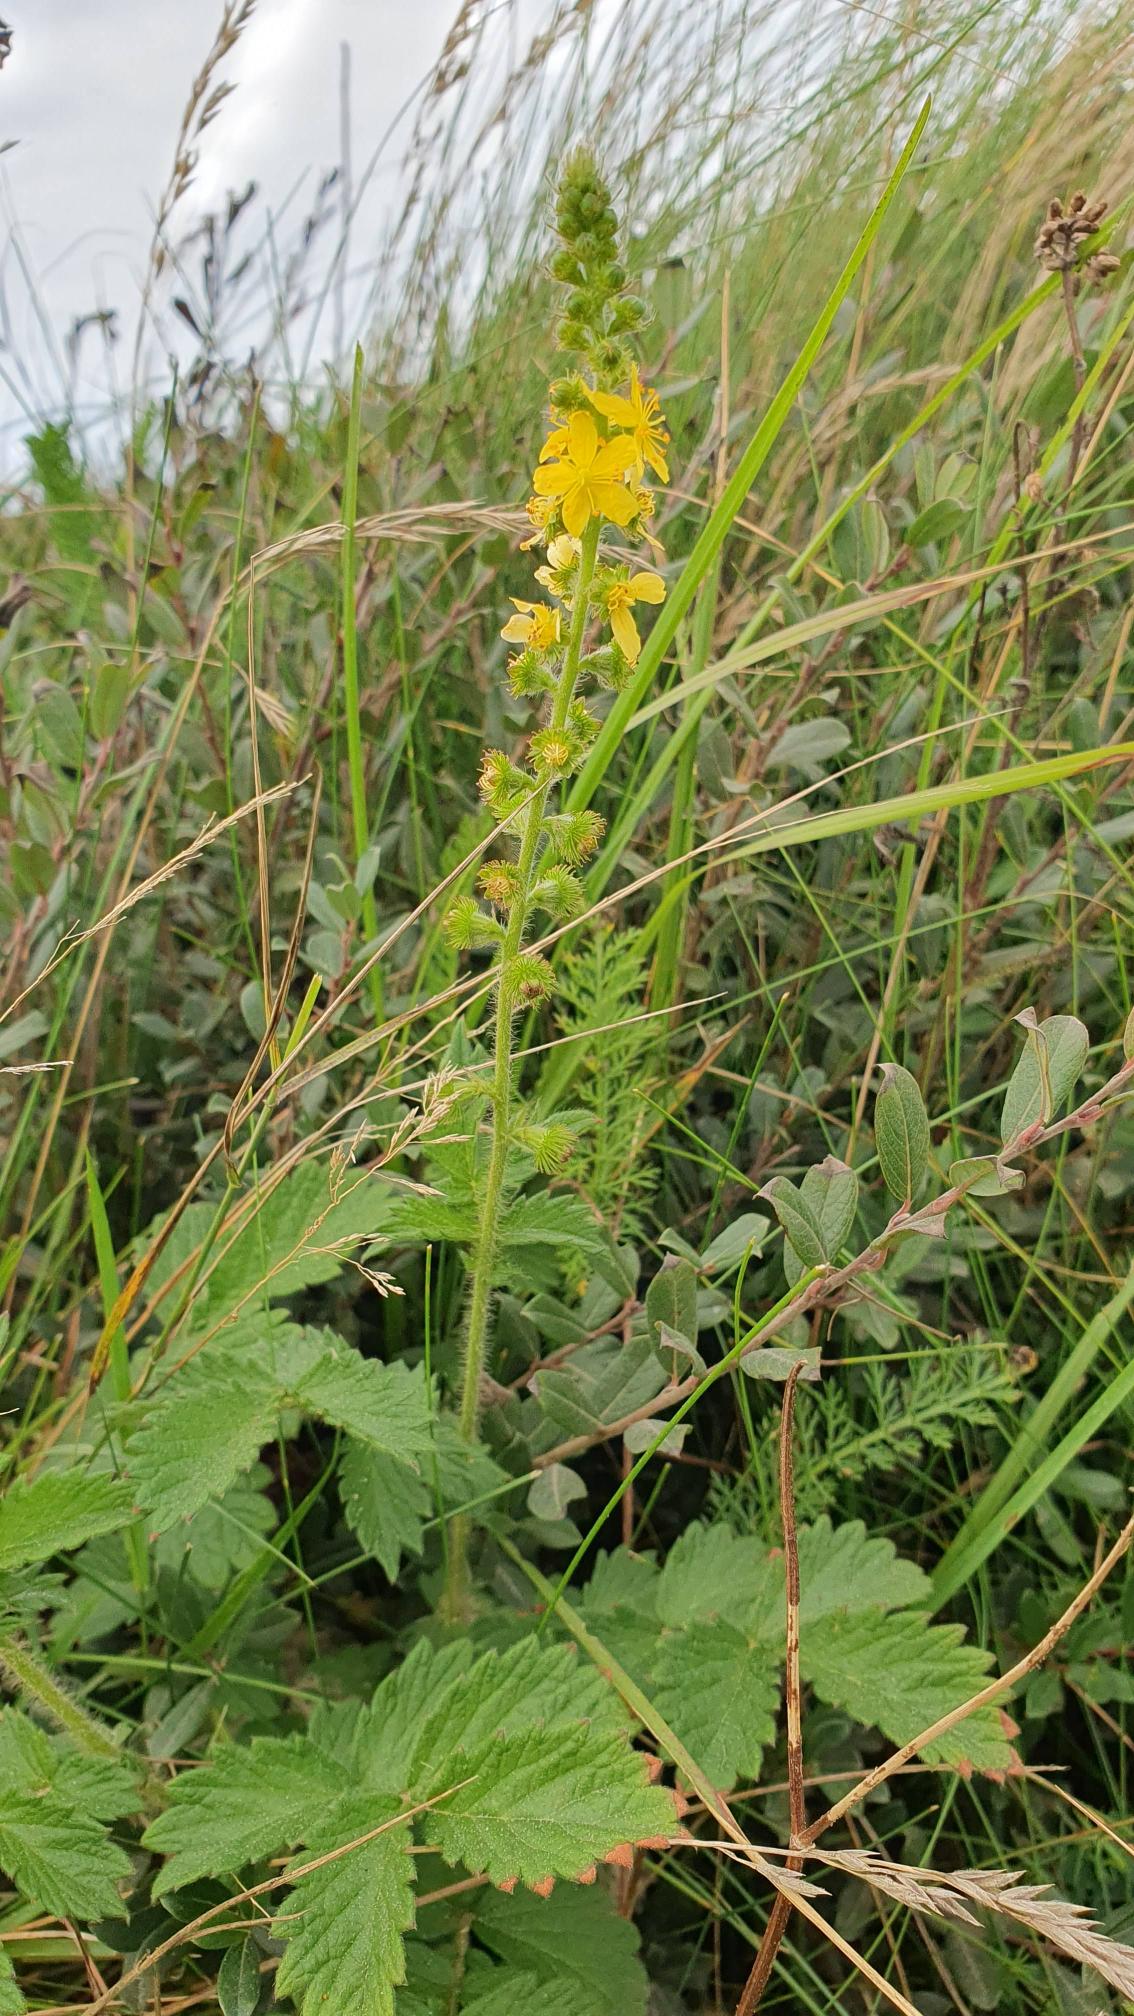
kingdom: Plantae
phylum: Tracheophyta
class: Magnoliopsida
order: Rosales
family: Rosaceae
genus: Agrimonia
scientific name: Agrimonia eupatoria
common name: Almindelig agermåne
